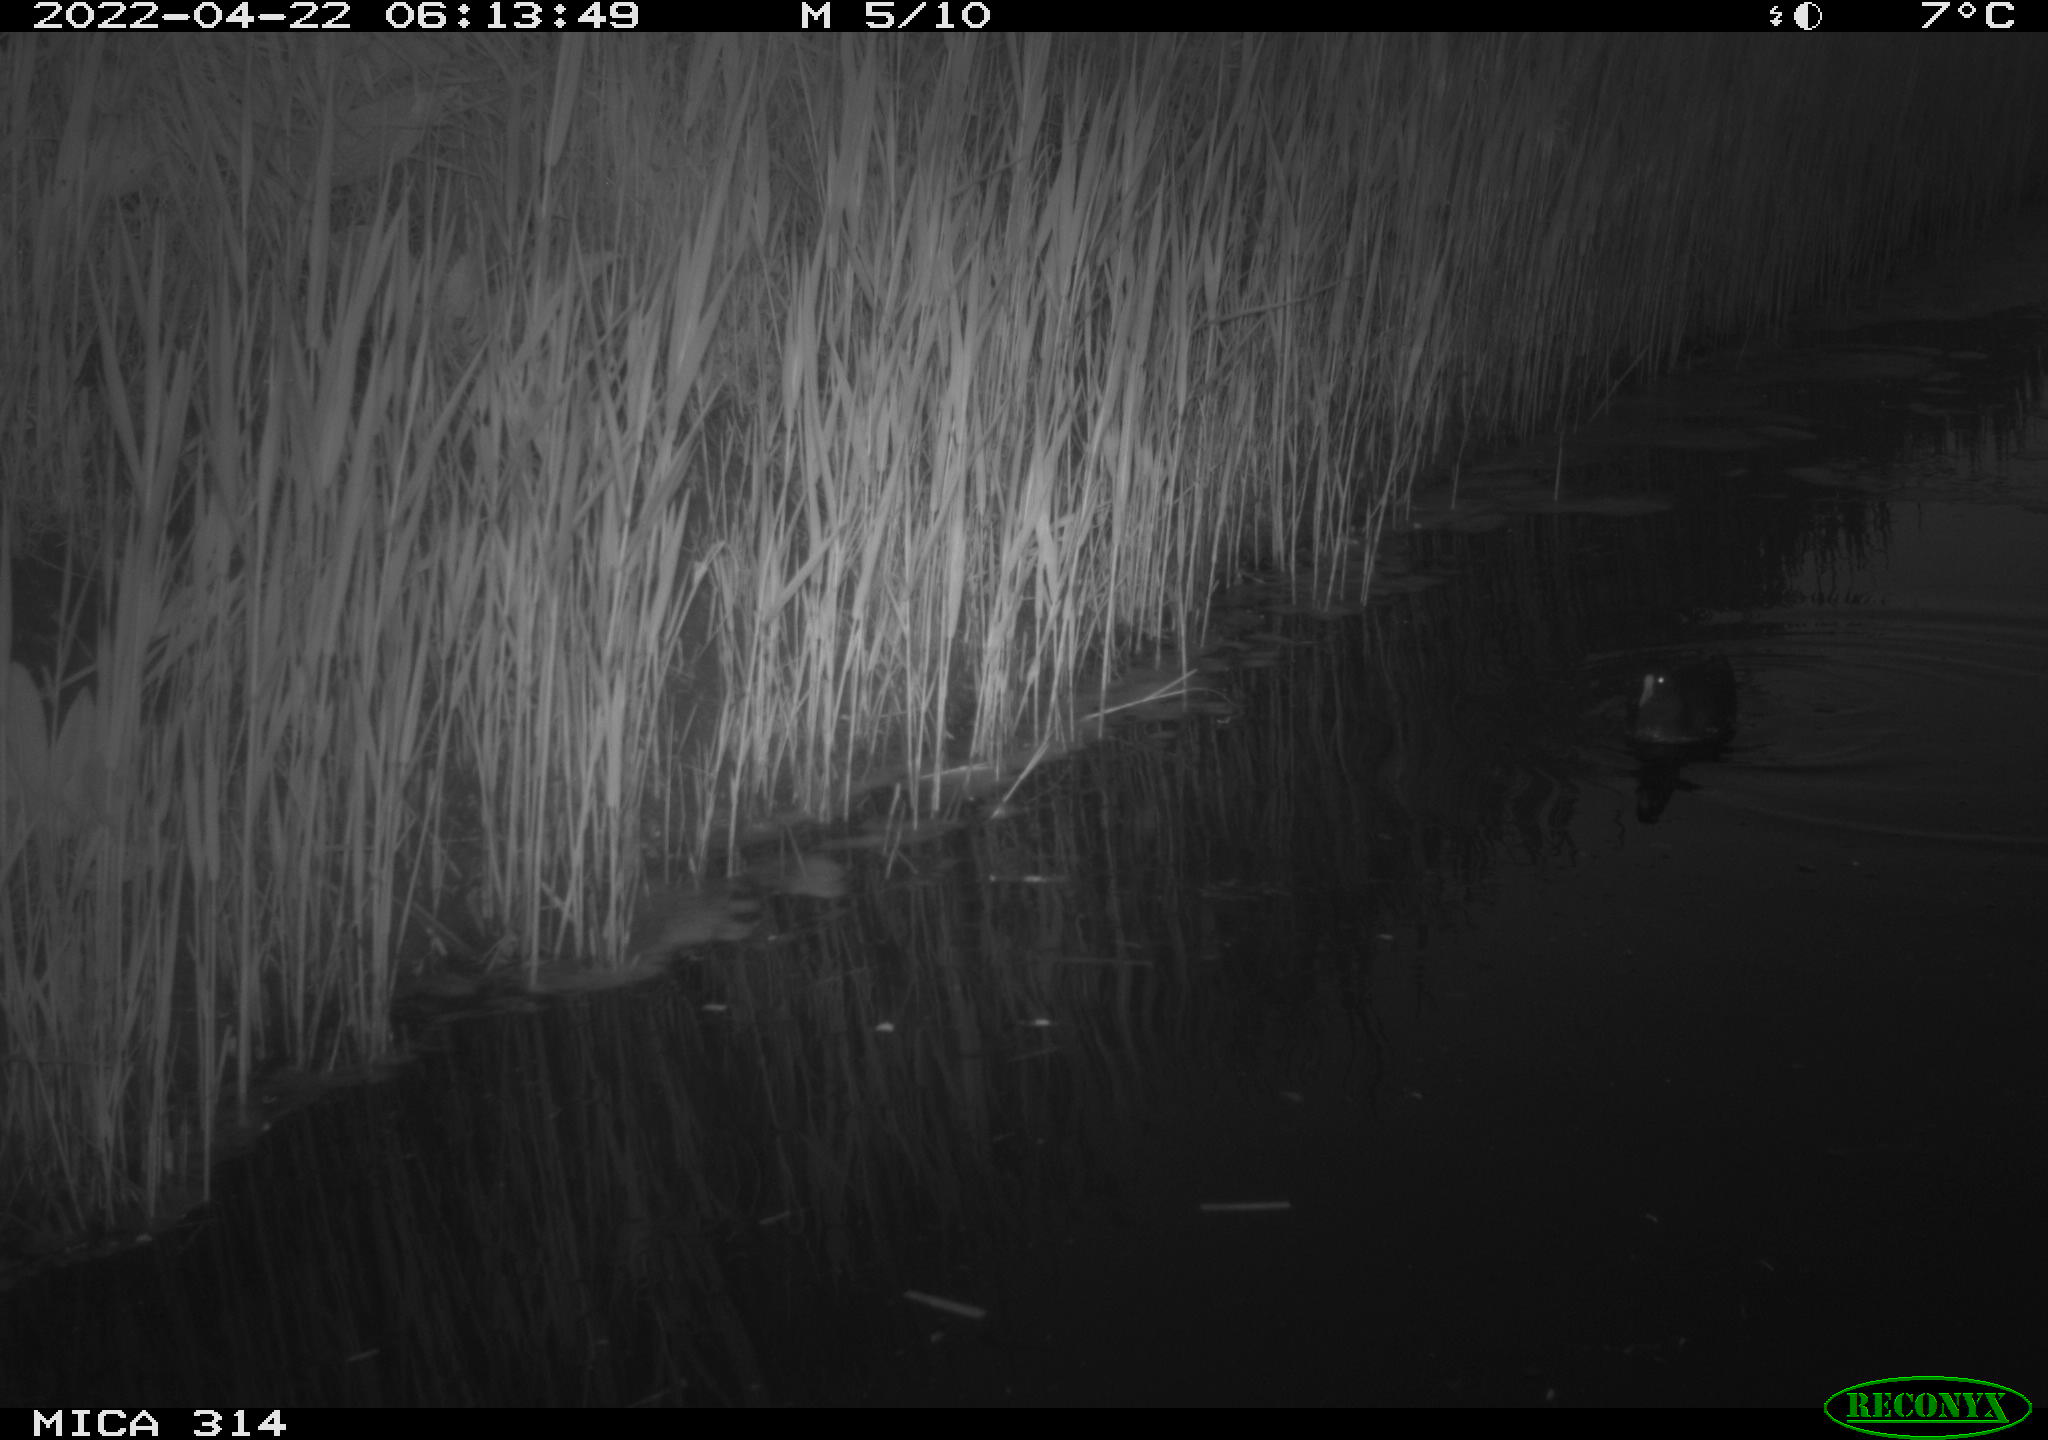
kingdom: Animalia
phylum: Chordata
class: Aves
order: Gruiformes
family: Rallidae
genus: Gallinula
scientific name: Gallinula chloropus
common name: Common moorhen
